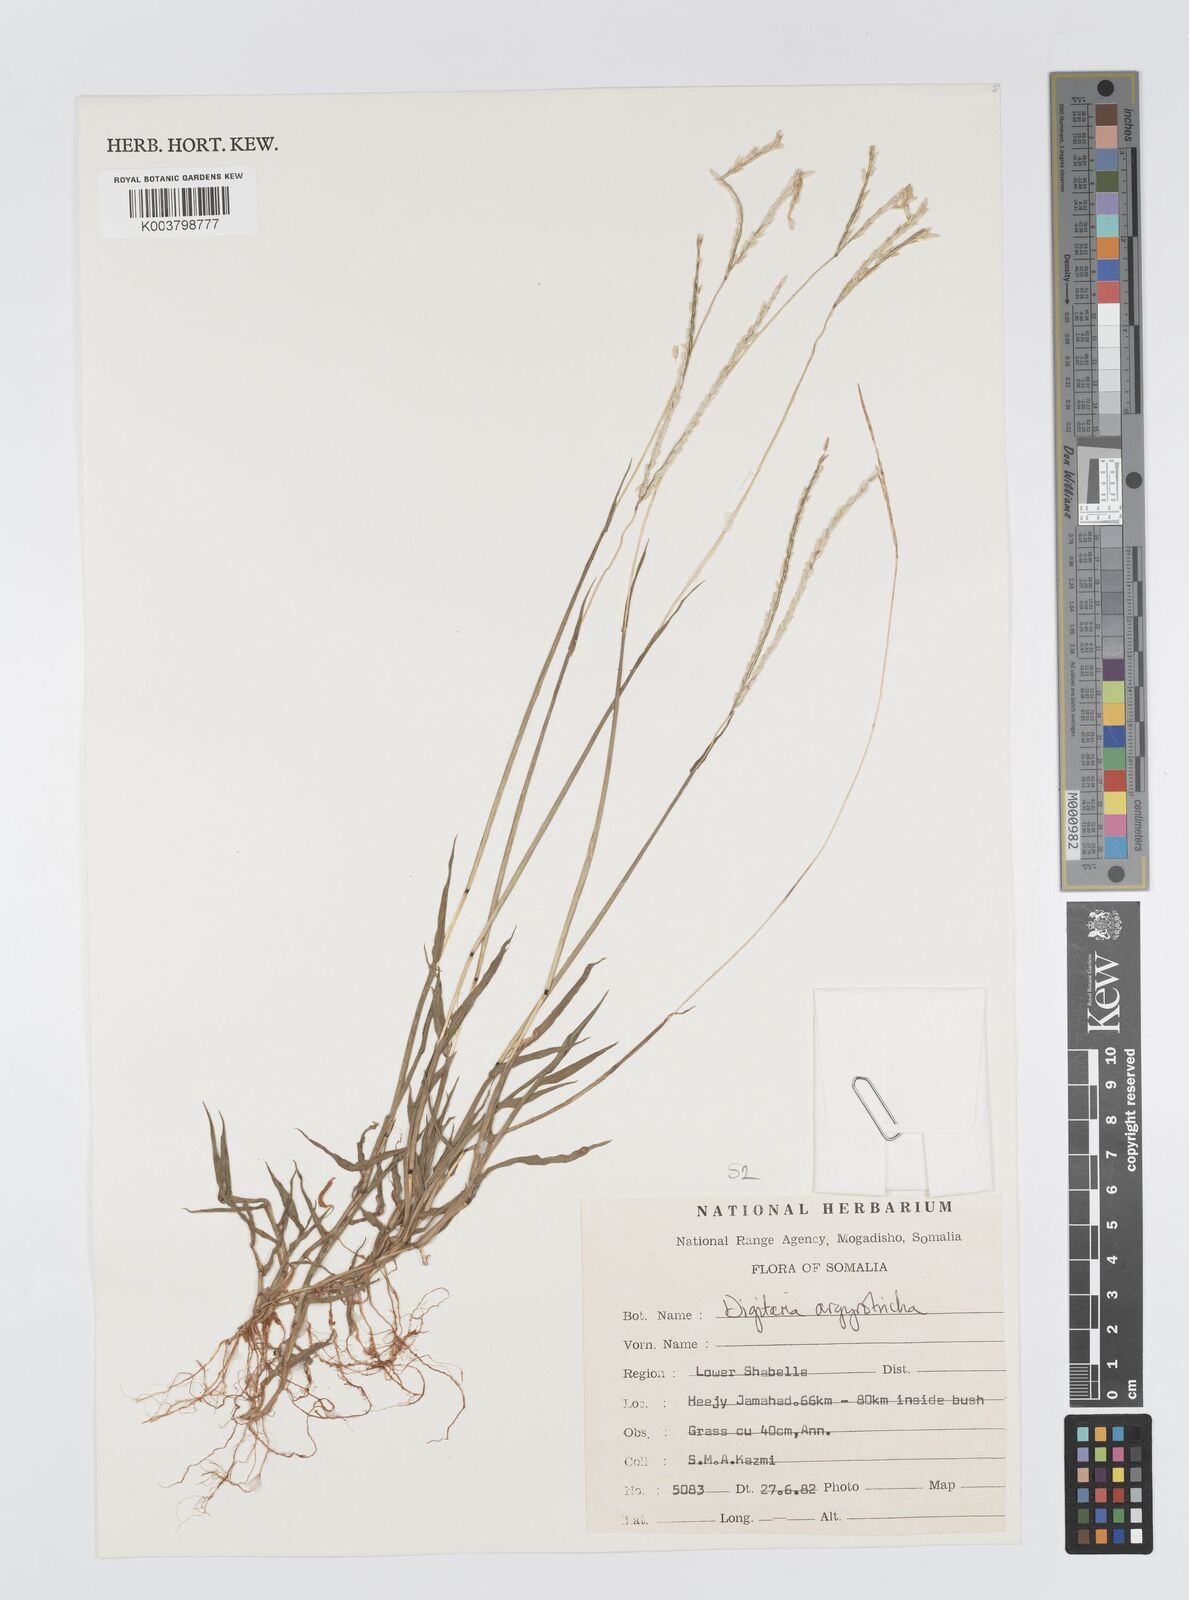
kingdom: Plantae
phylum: Tracheophyta
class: Liliopsida
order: Poales
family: Poaceae
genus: Digitaria
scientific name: Digitaria argyrotricha
